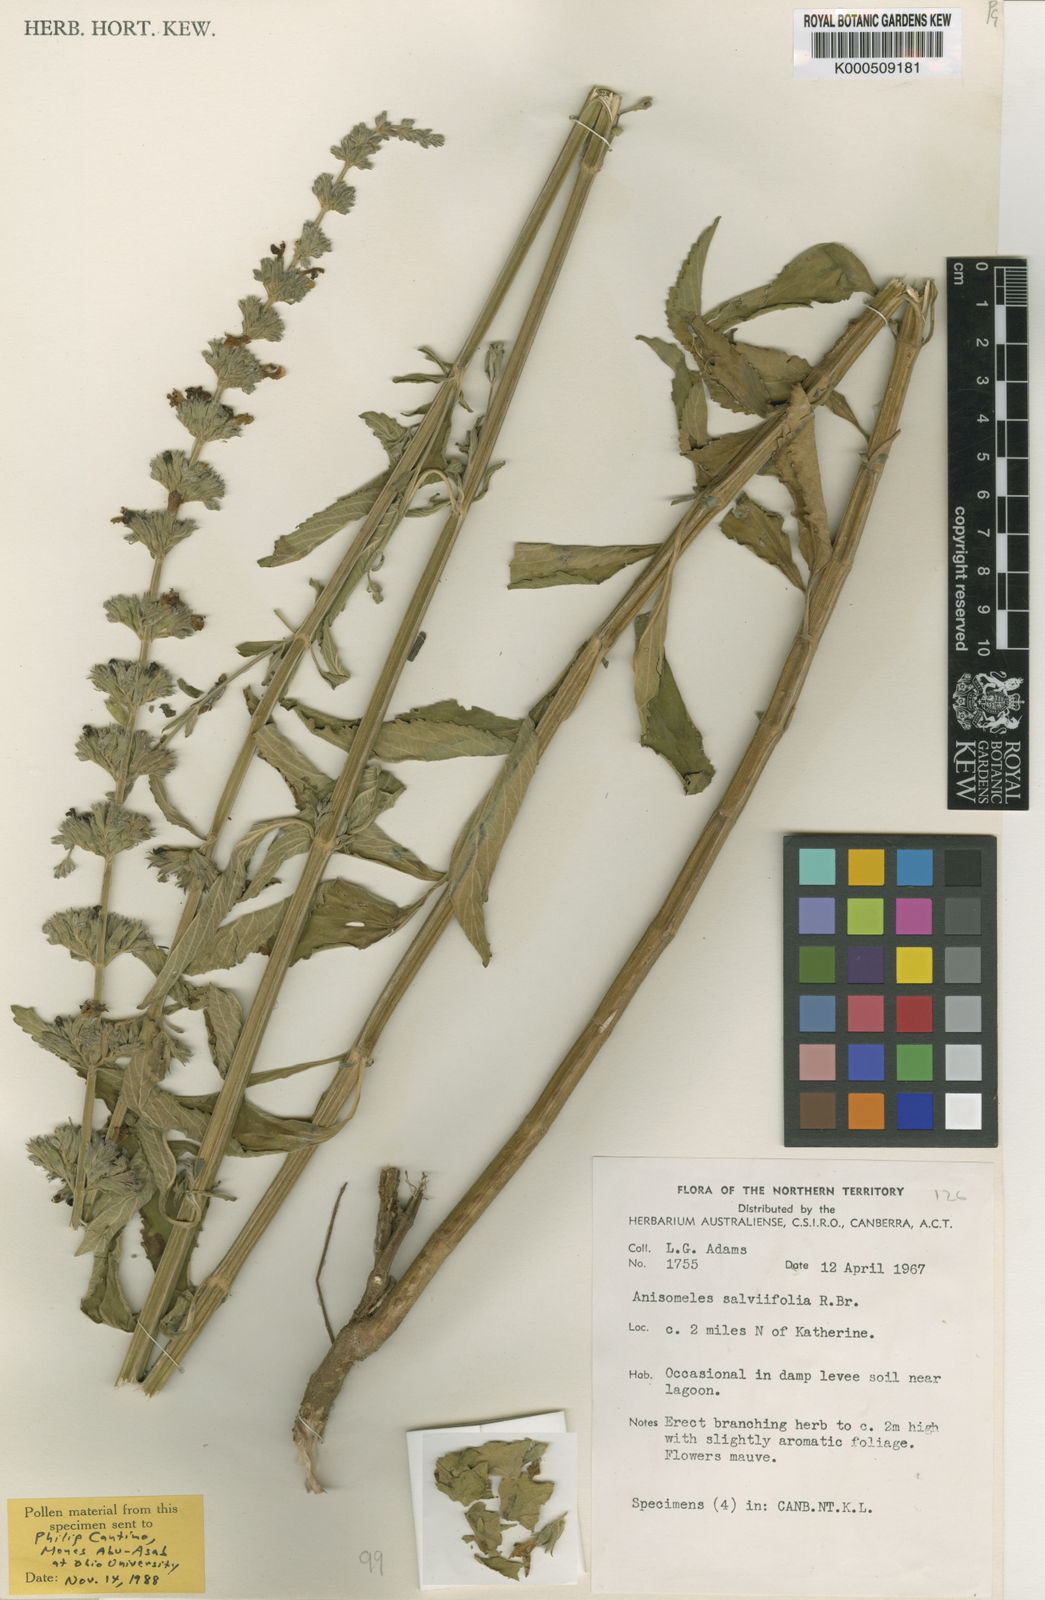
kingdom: Plantae
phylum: Tracheophyta
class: Magnoliopsida
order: Lamiales
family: Lamiaceae
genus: Anisomeles
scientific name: Anisomeles salviifolia
